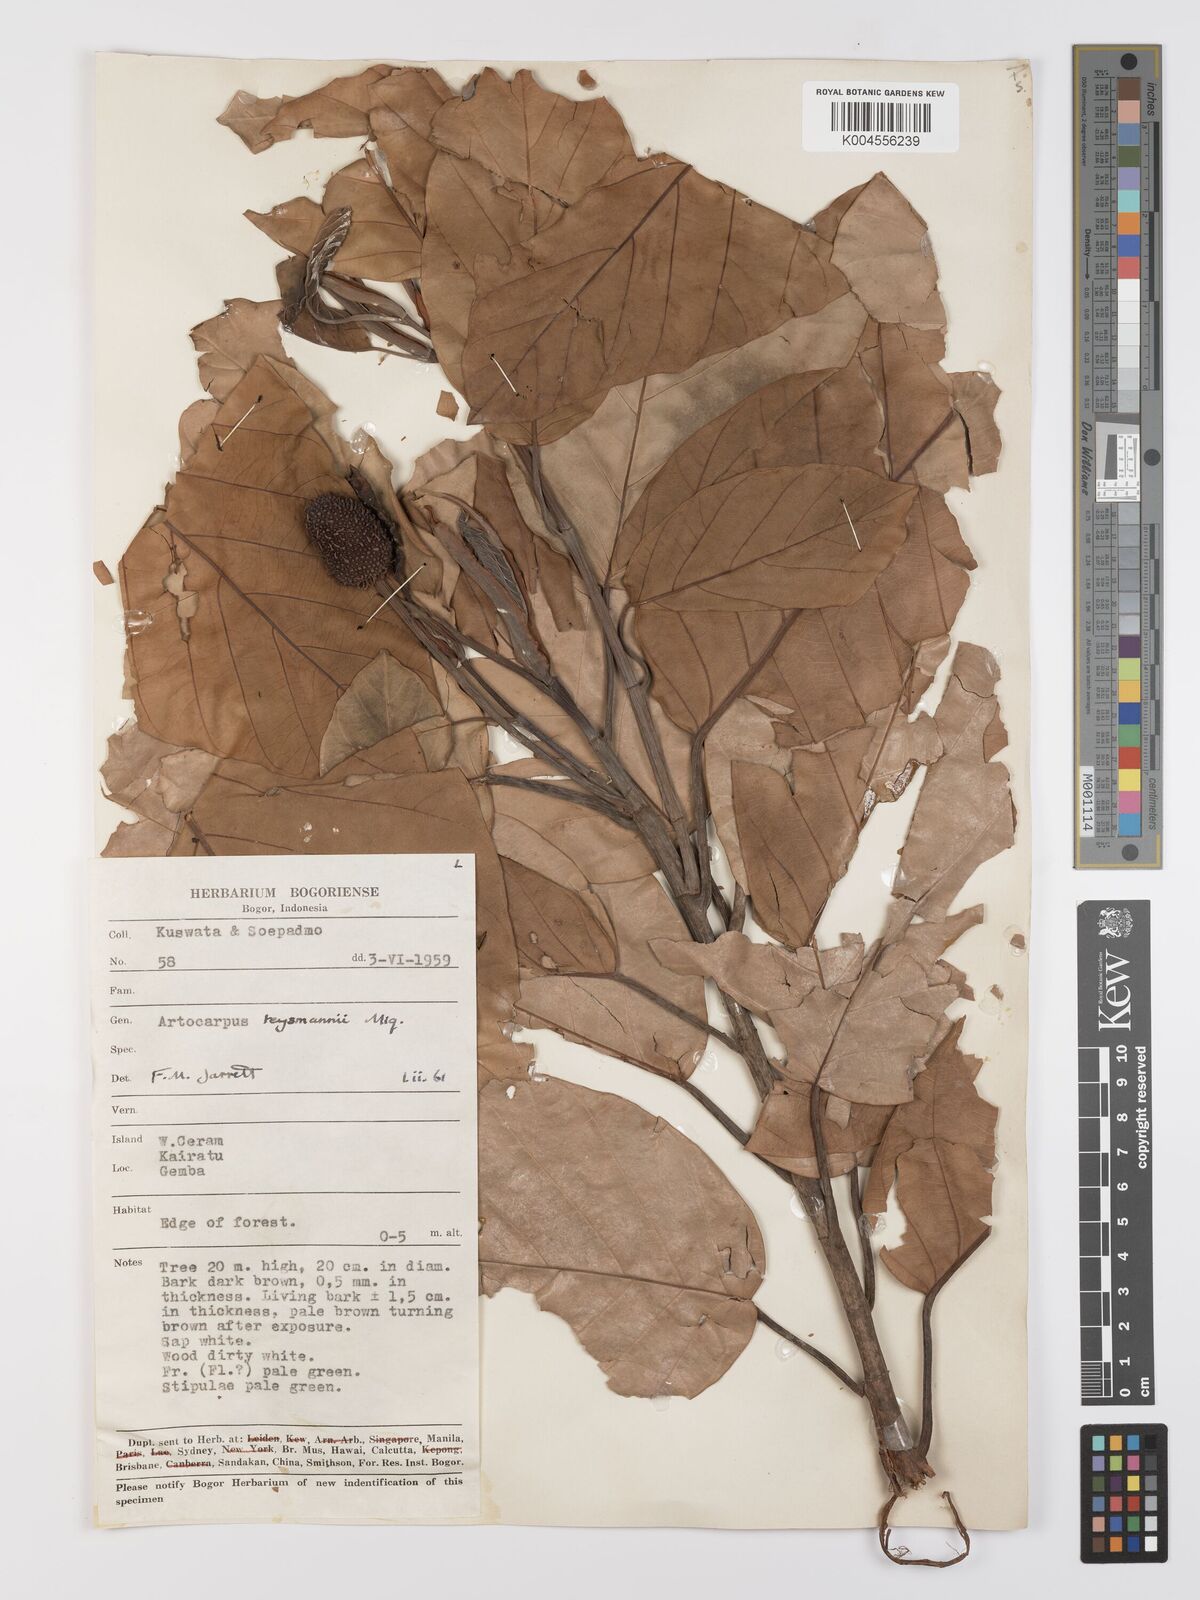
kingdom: Plantae
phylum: Tracheophyta
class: Magnoliopsida
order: Rosales
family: Moraceae
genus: Artocarpus
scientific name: Artocarpus teysmannii
